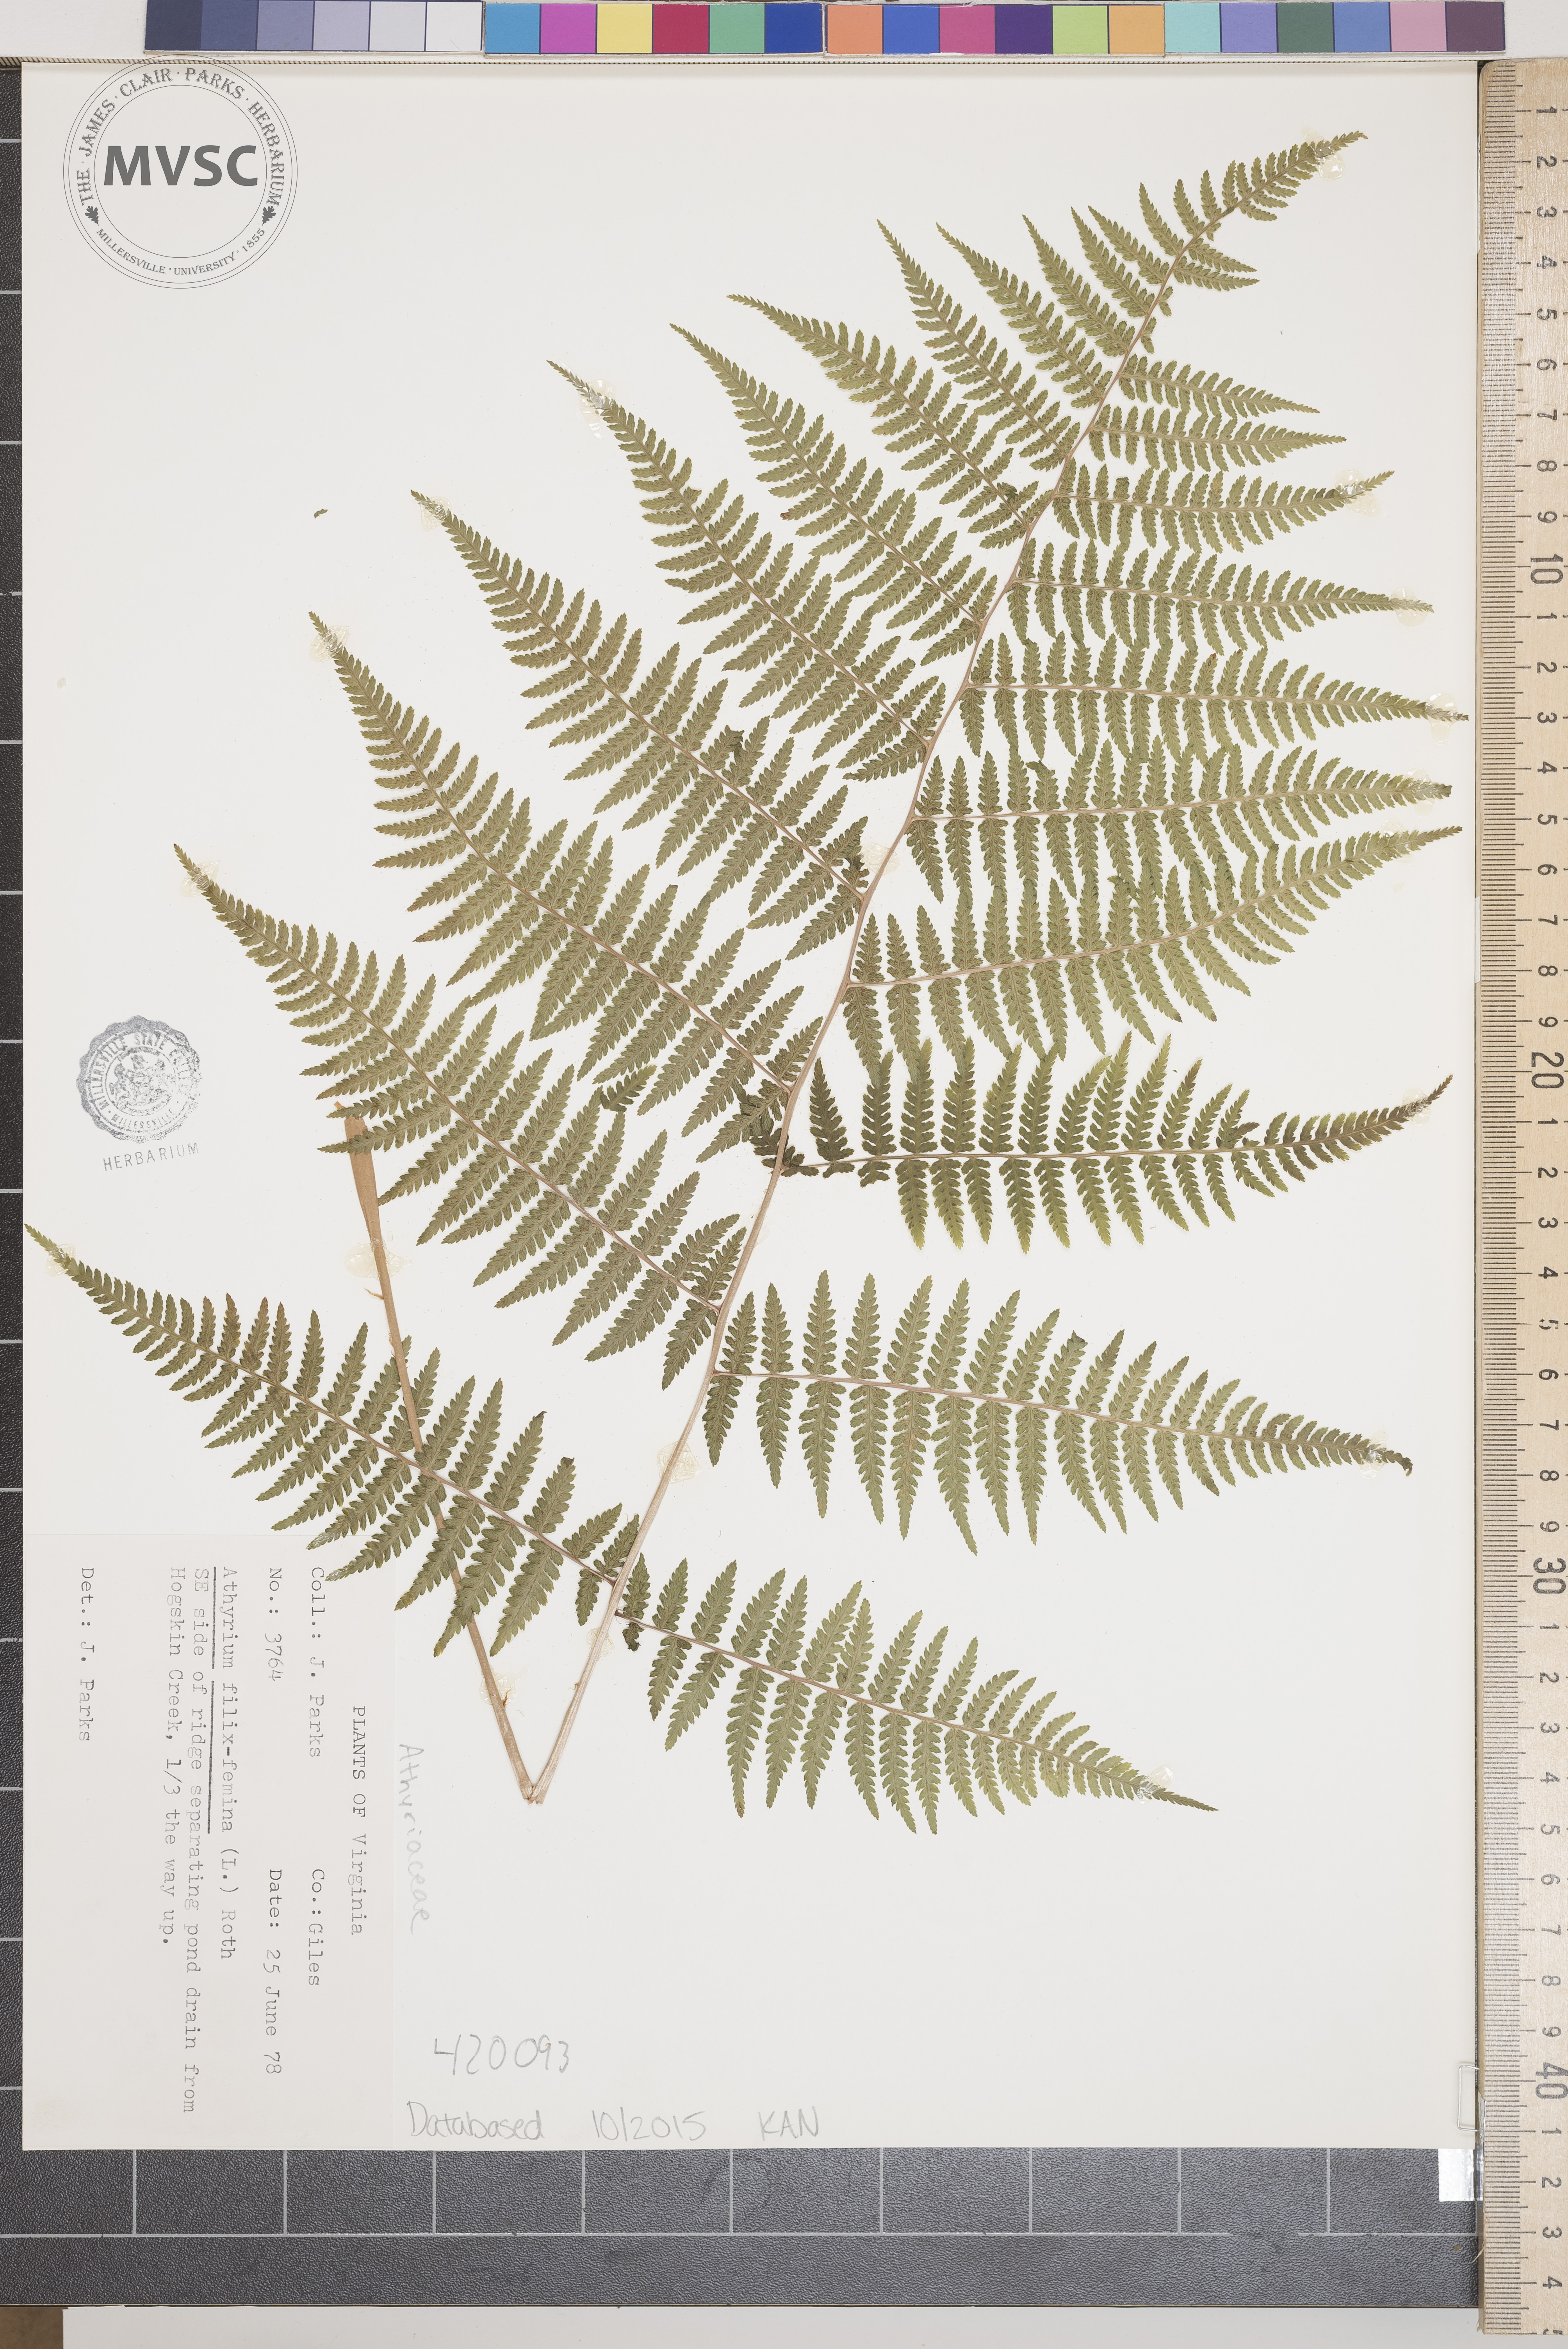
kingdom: Plantae
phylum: Tracheophyta
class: Polypodiopsida
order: Polypodiales
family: Athyriaceae
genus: Athyrium
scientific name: Athyrium filix-femina
